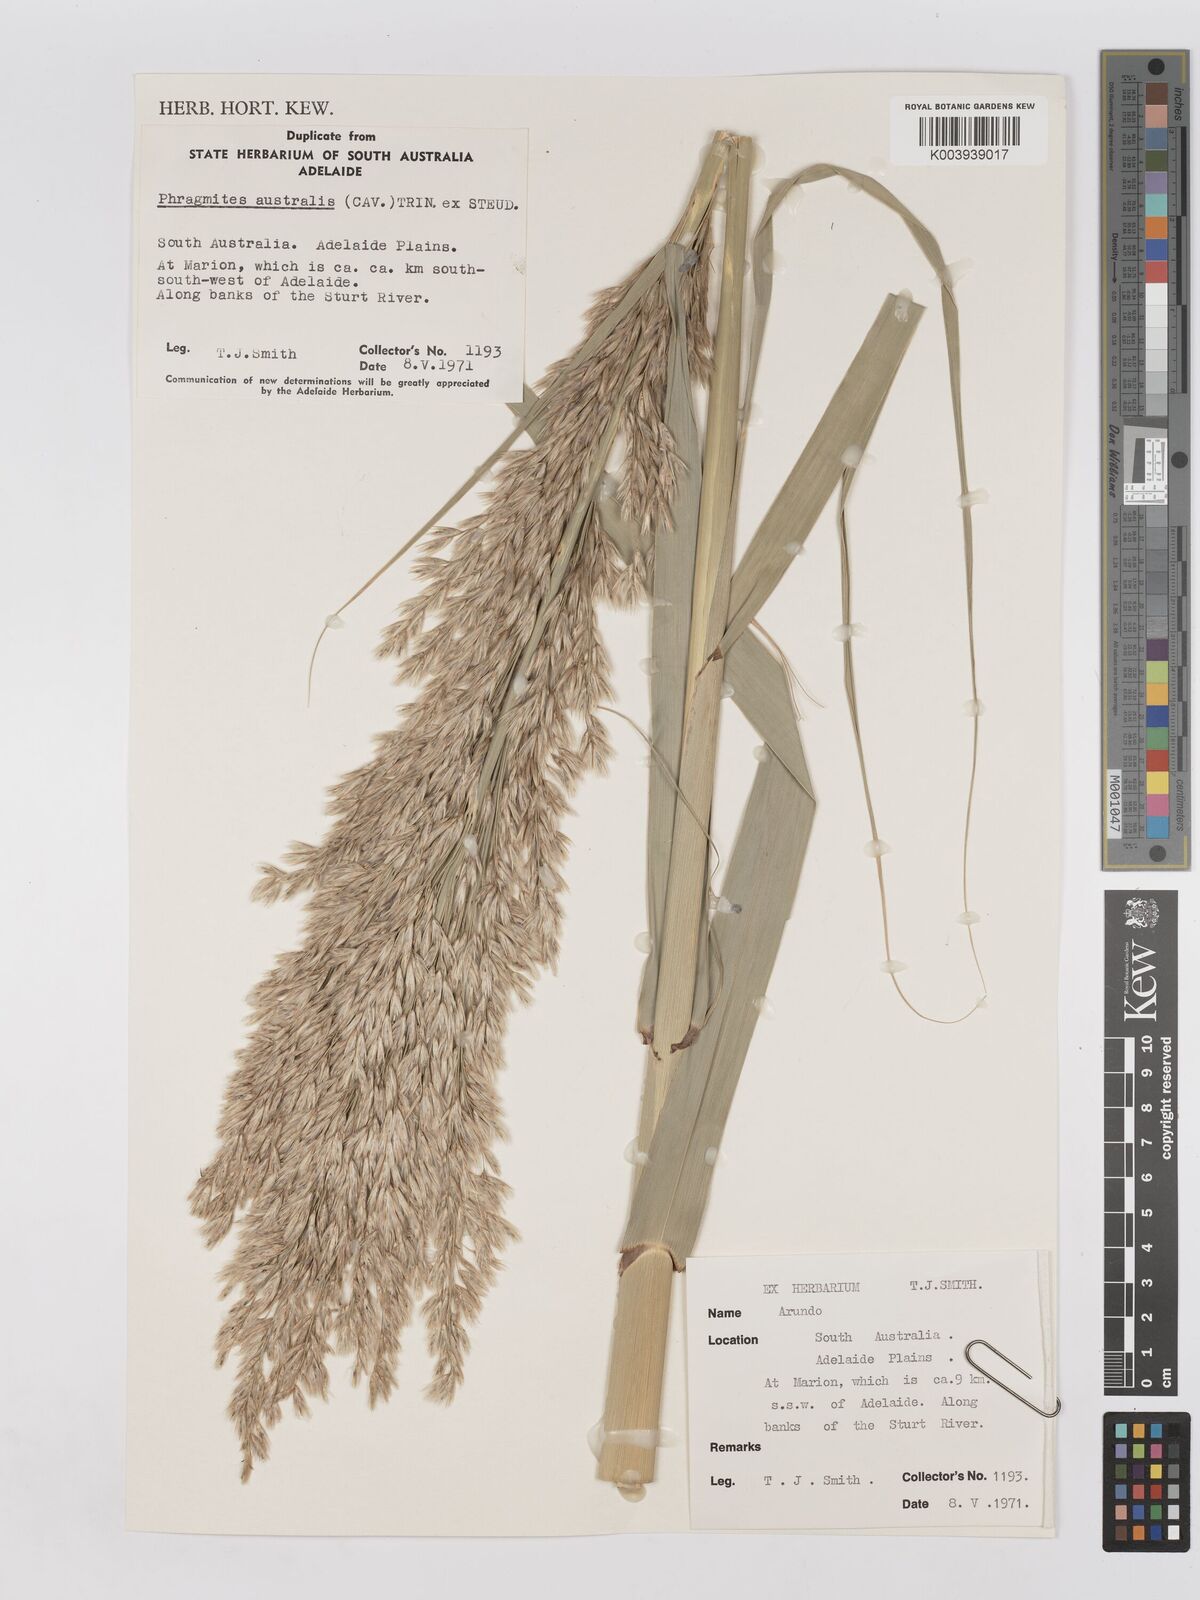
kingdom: Plantae
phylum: Tracheophyta
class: Liliopsida
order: Poales
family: Poaceae
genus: Phragmites
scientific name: Phragmites australis
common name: Common reed
